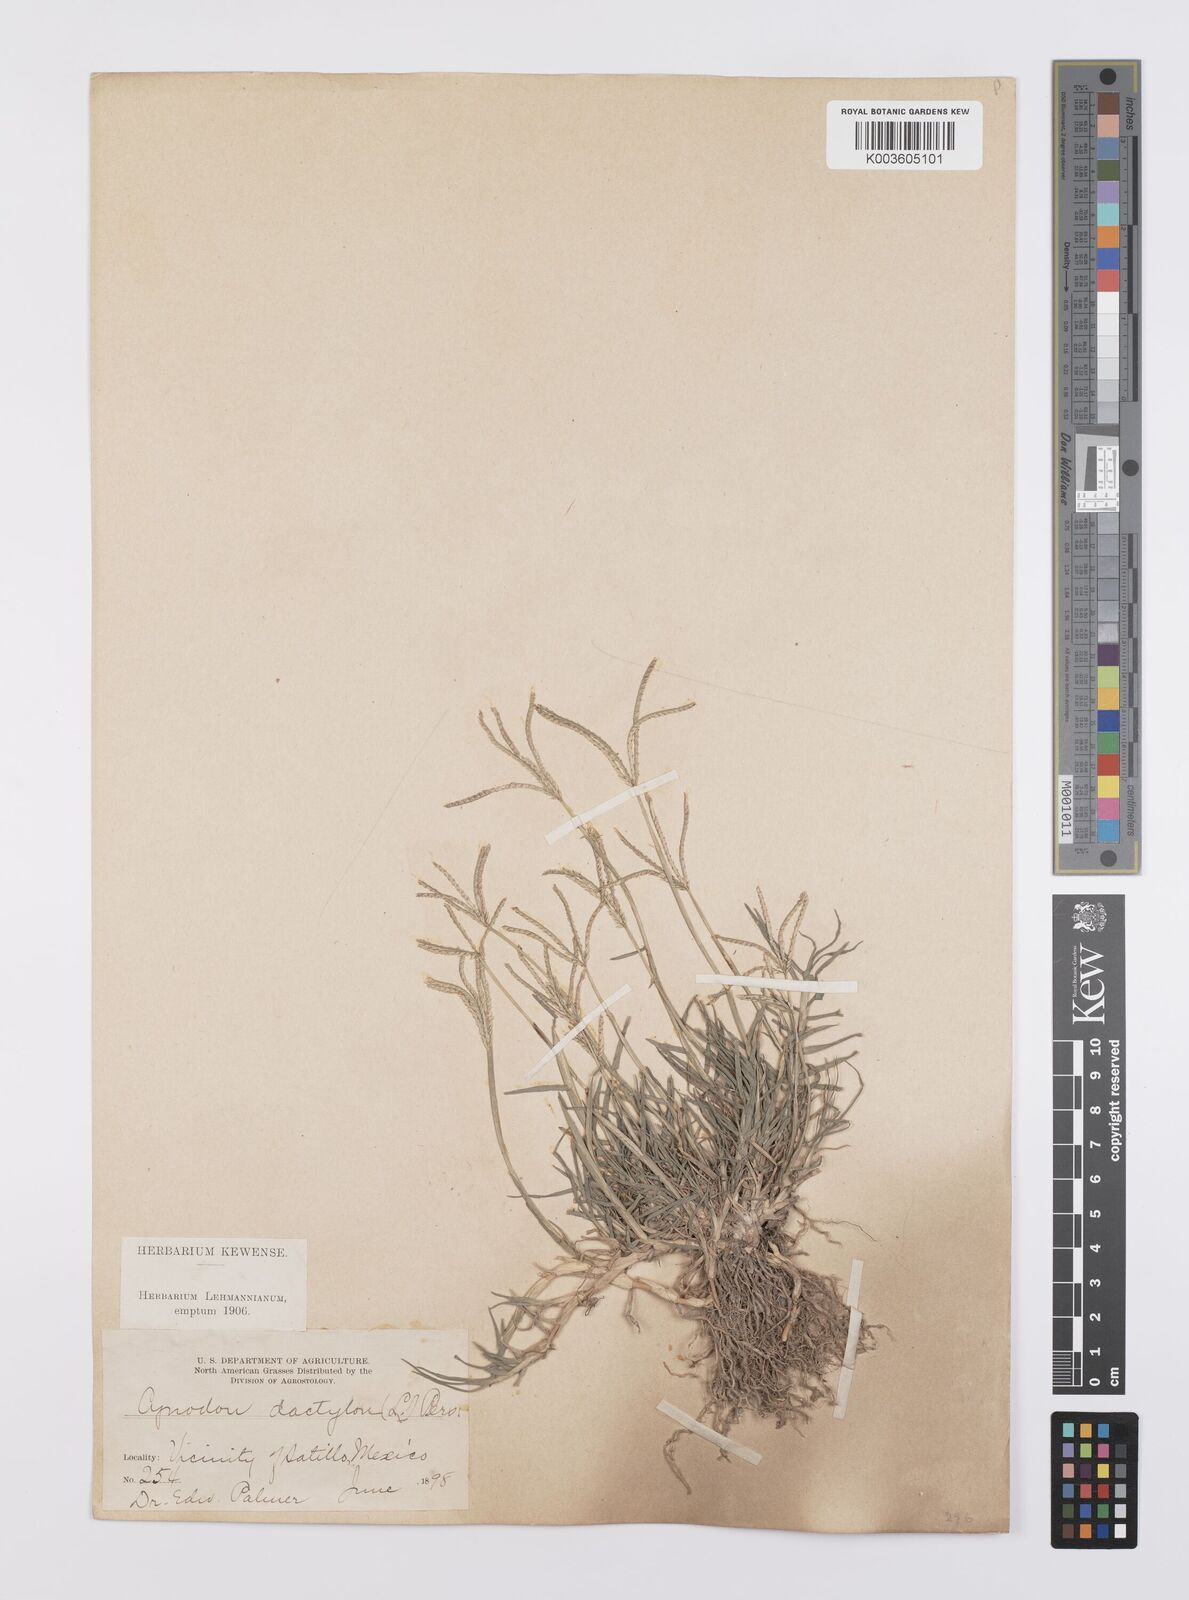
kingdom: Plantae
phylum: Tracheophyta
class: Liliopsida
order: Poales
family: Poaceae
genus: Cynodon
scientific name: Cynodon dactylon
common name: Bermuda grass
